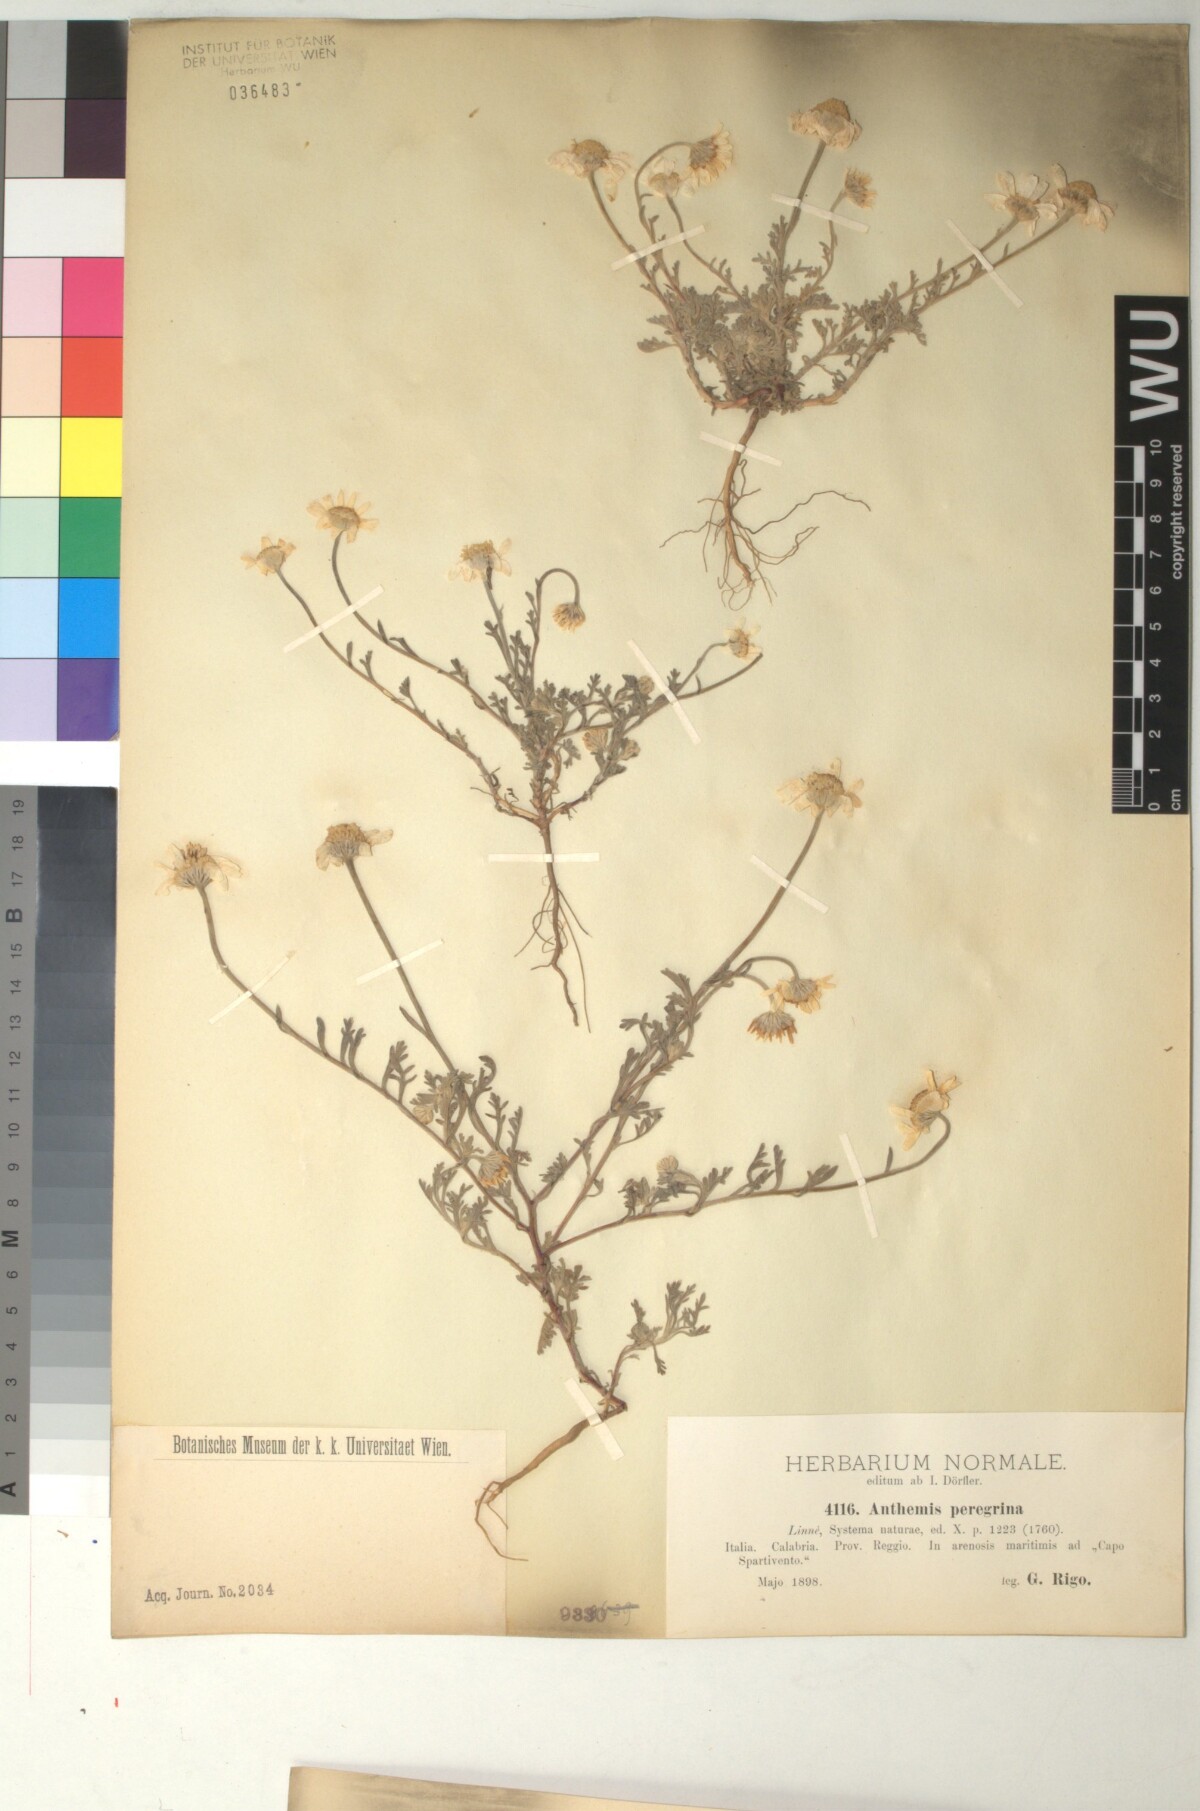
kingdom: Plantae
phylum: Tracheophyta
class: Magnoliopsida
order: Asterales
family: Asteraceae
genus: Anthemis
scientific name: Anthemis tomentosa
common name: Woolly chamomile
